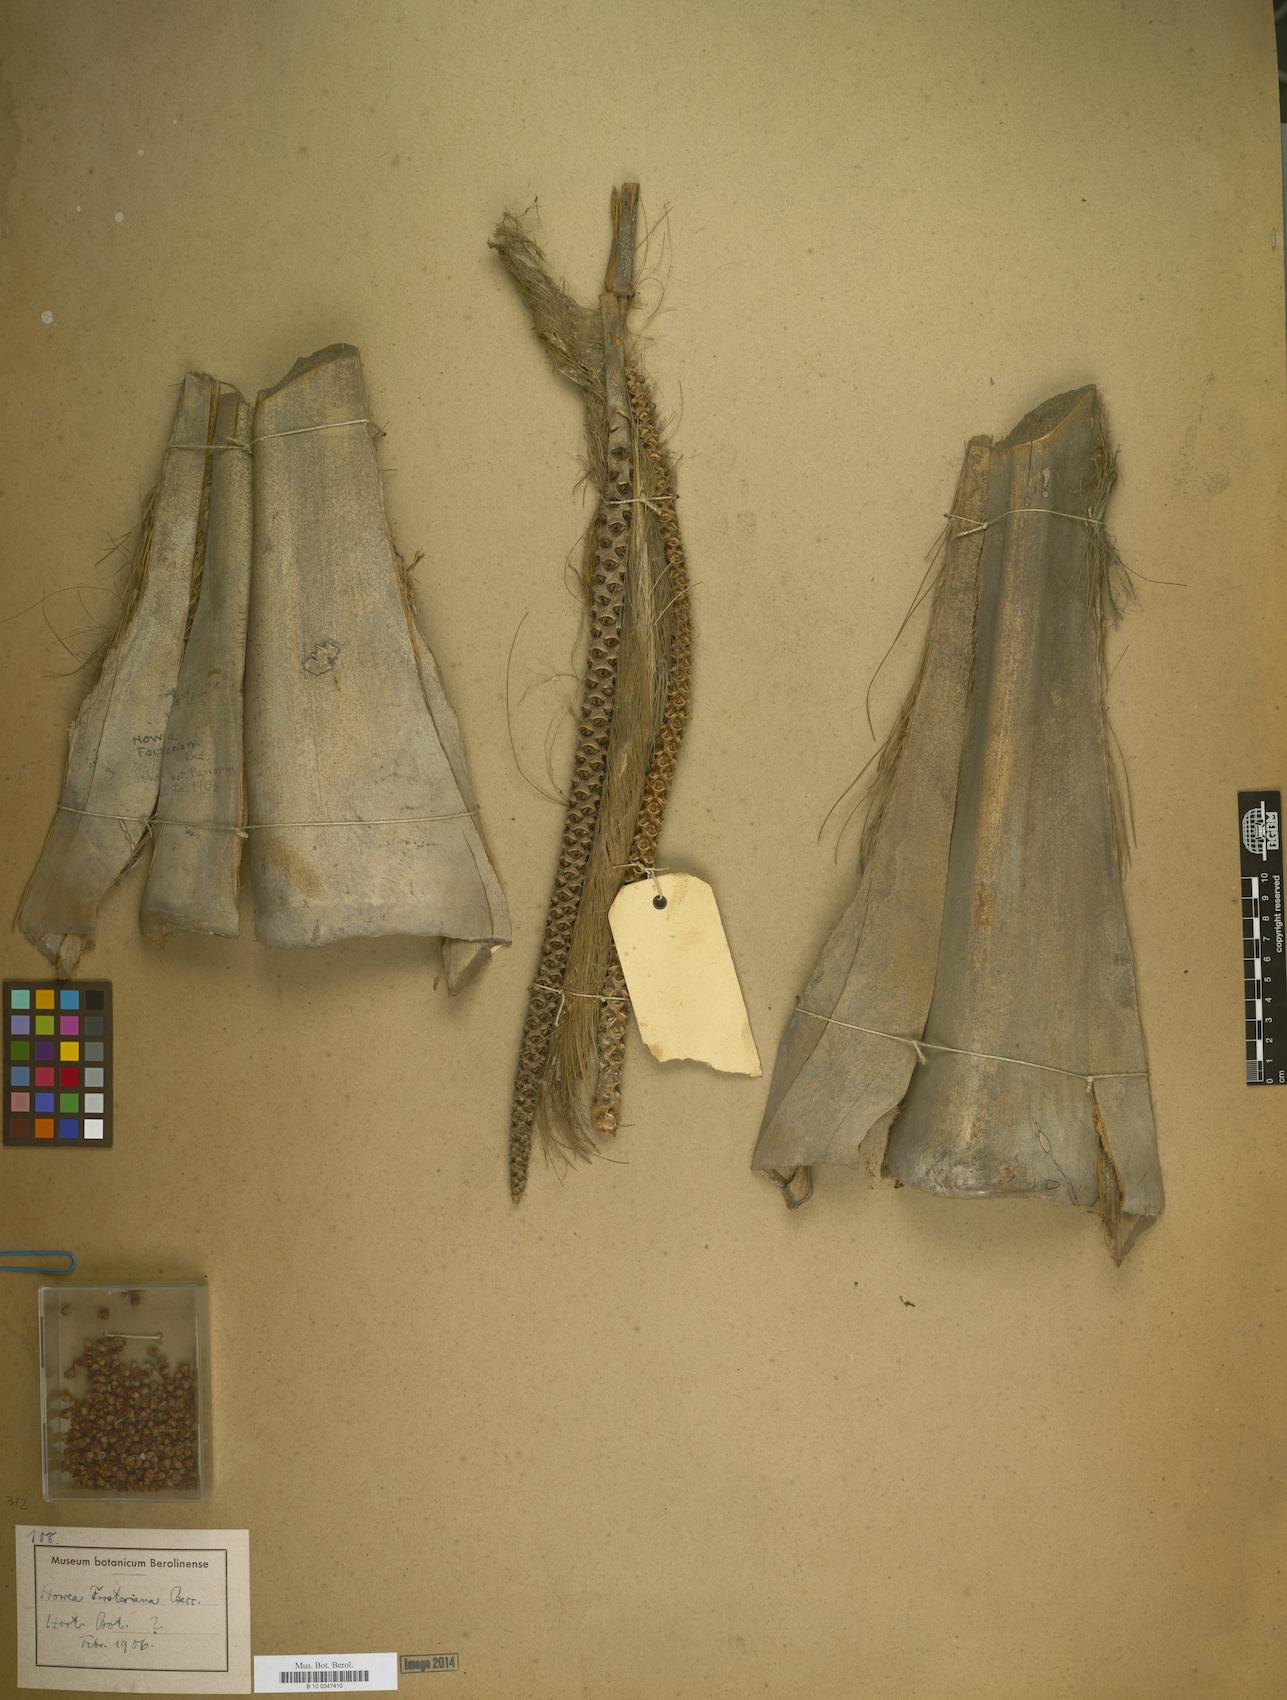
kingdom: Plantae
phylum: Tracheophyta
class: Liliopsida
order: Arecales
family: Arecaceae
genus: Howea
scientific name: Howea forsteriana
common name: Kentia palm
